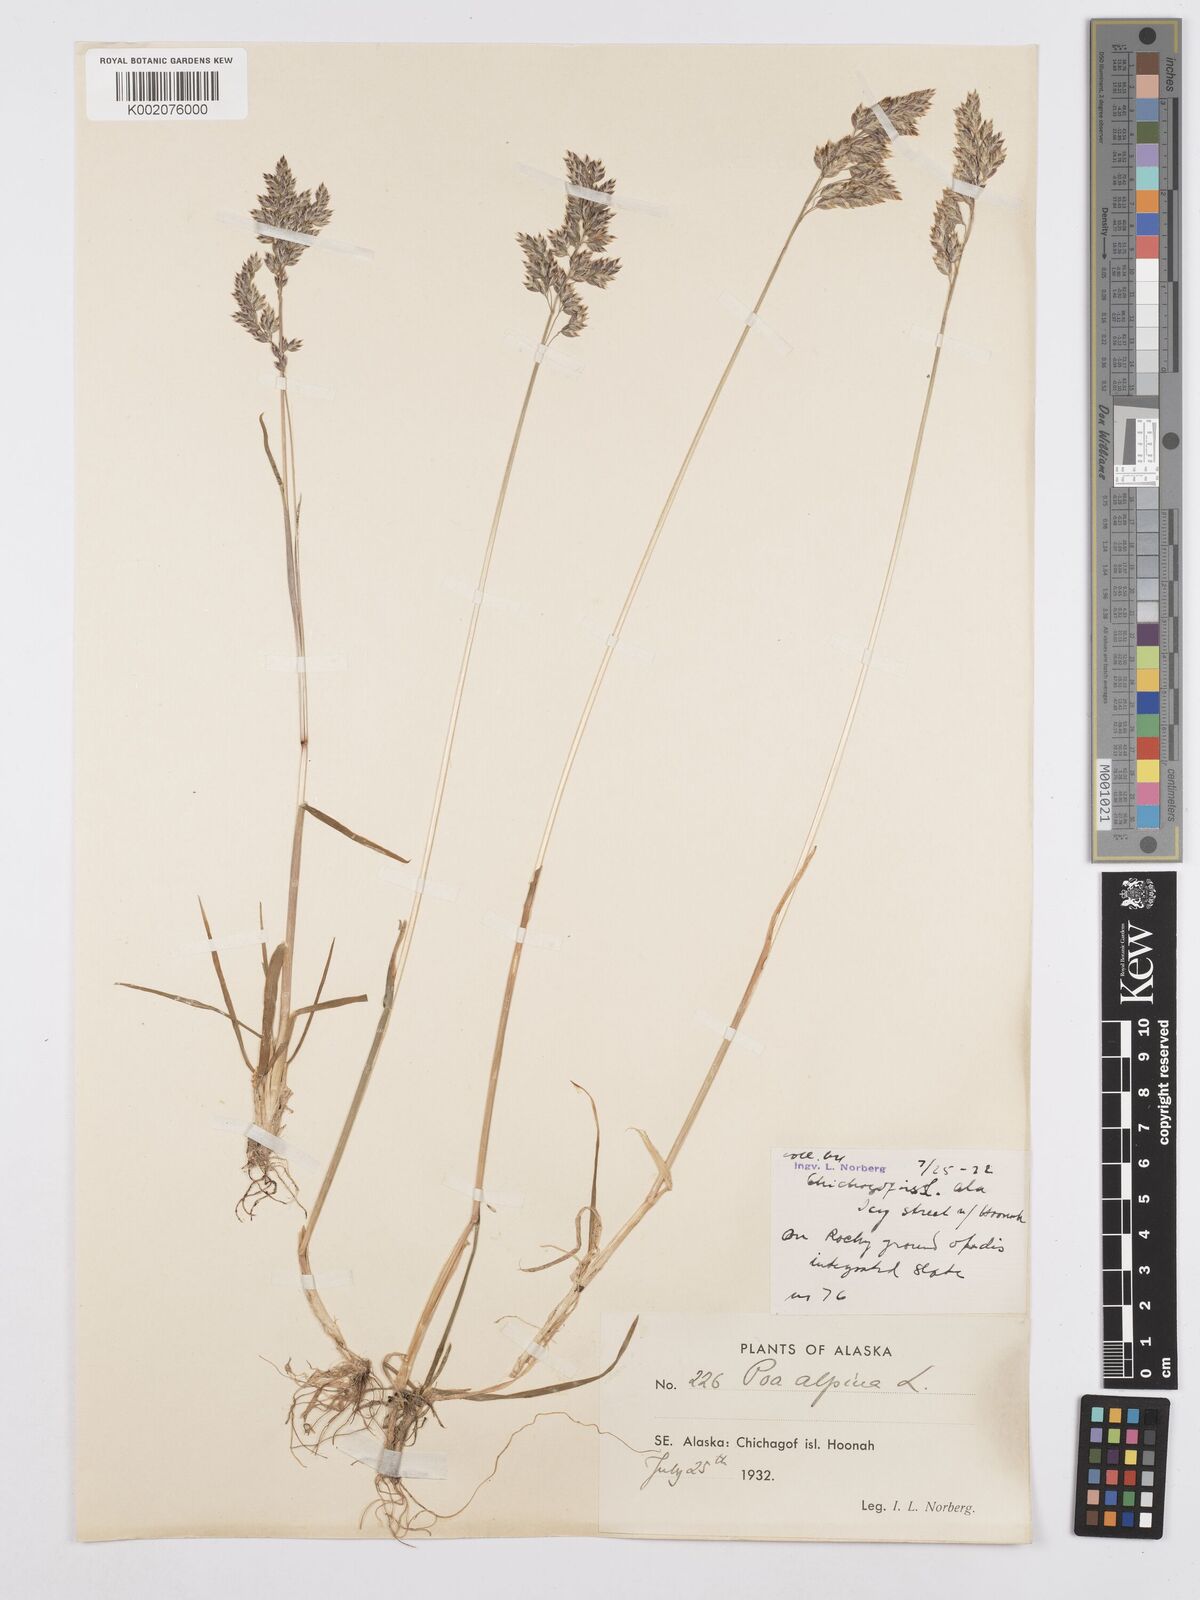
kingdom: Plantae
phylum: Tracheophyta
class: Liliopsida
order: Poales
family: Poaceae
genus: Poa
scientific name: Poa alpina
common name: Alpine bluegrass
